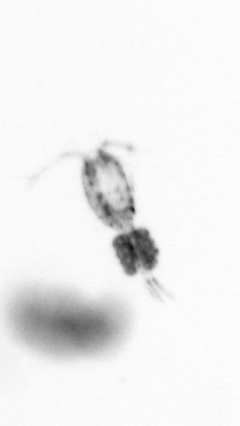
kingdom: Animalia
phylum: Arthropoda
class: Copepoda
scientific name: Copepoda
